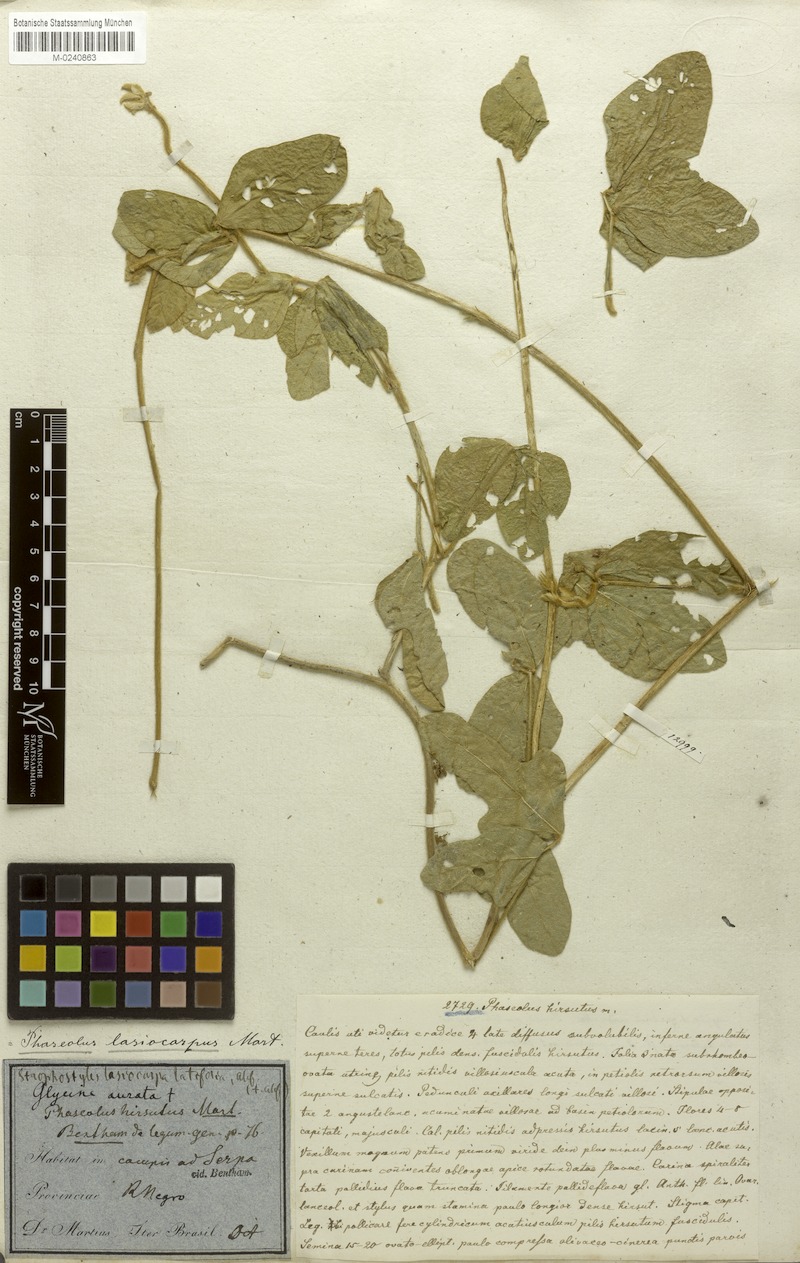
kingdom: Plantae
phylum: Tracheophyta
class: Magnoliopsida
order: Fabales
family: Fabaceae
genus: Vigna
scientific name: Vigna lasiocarpa
